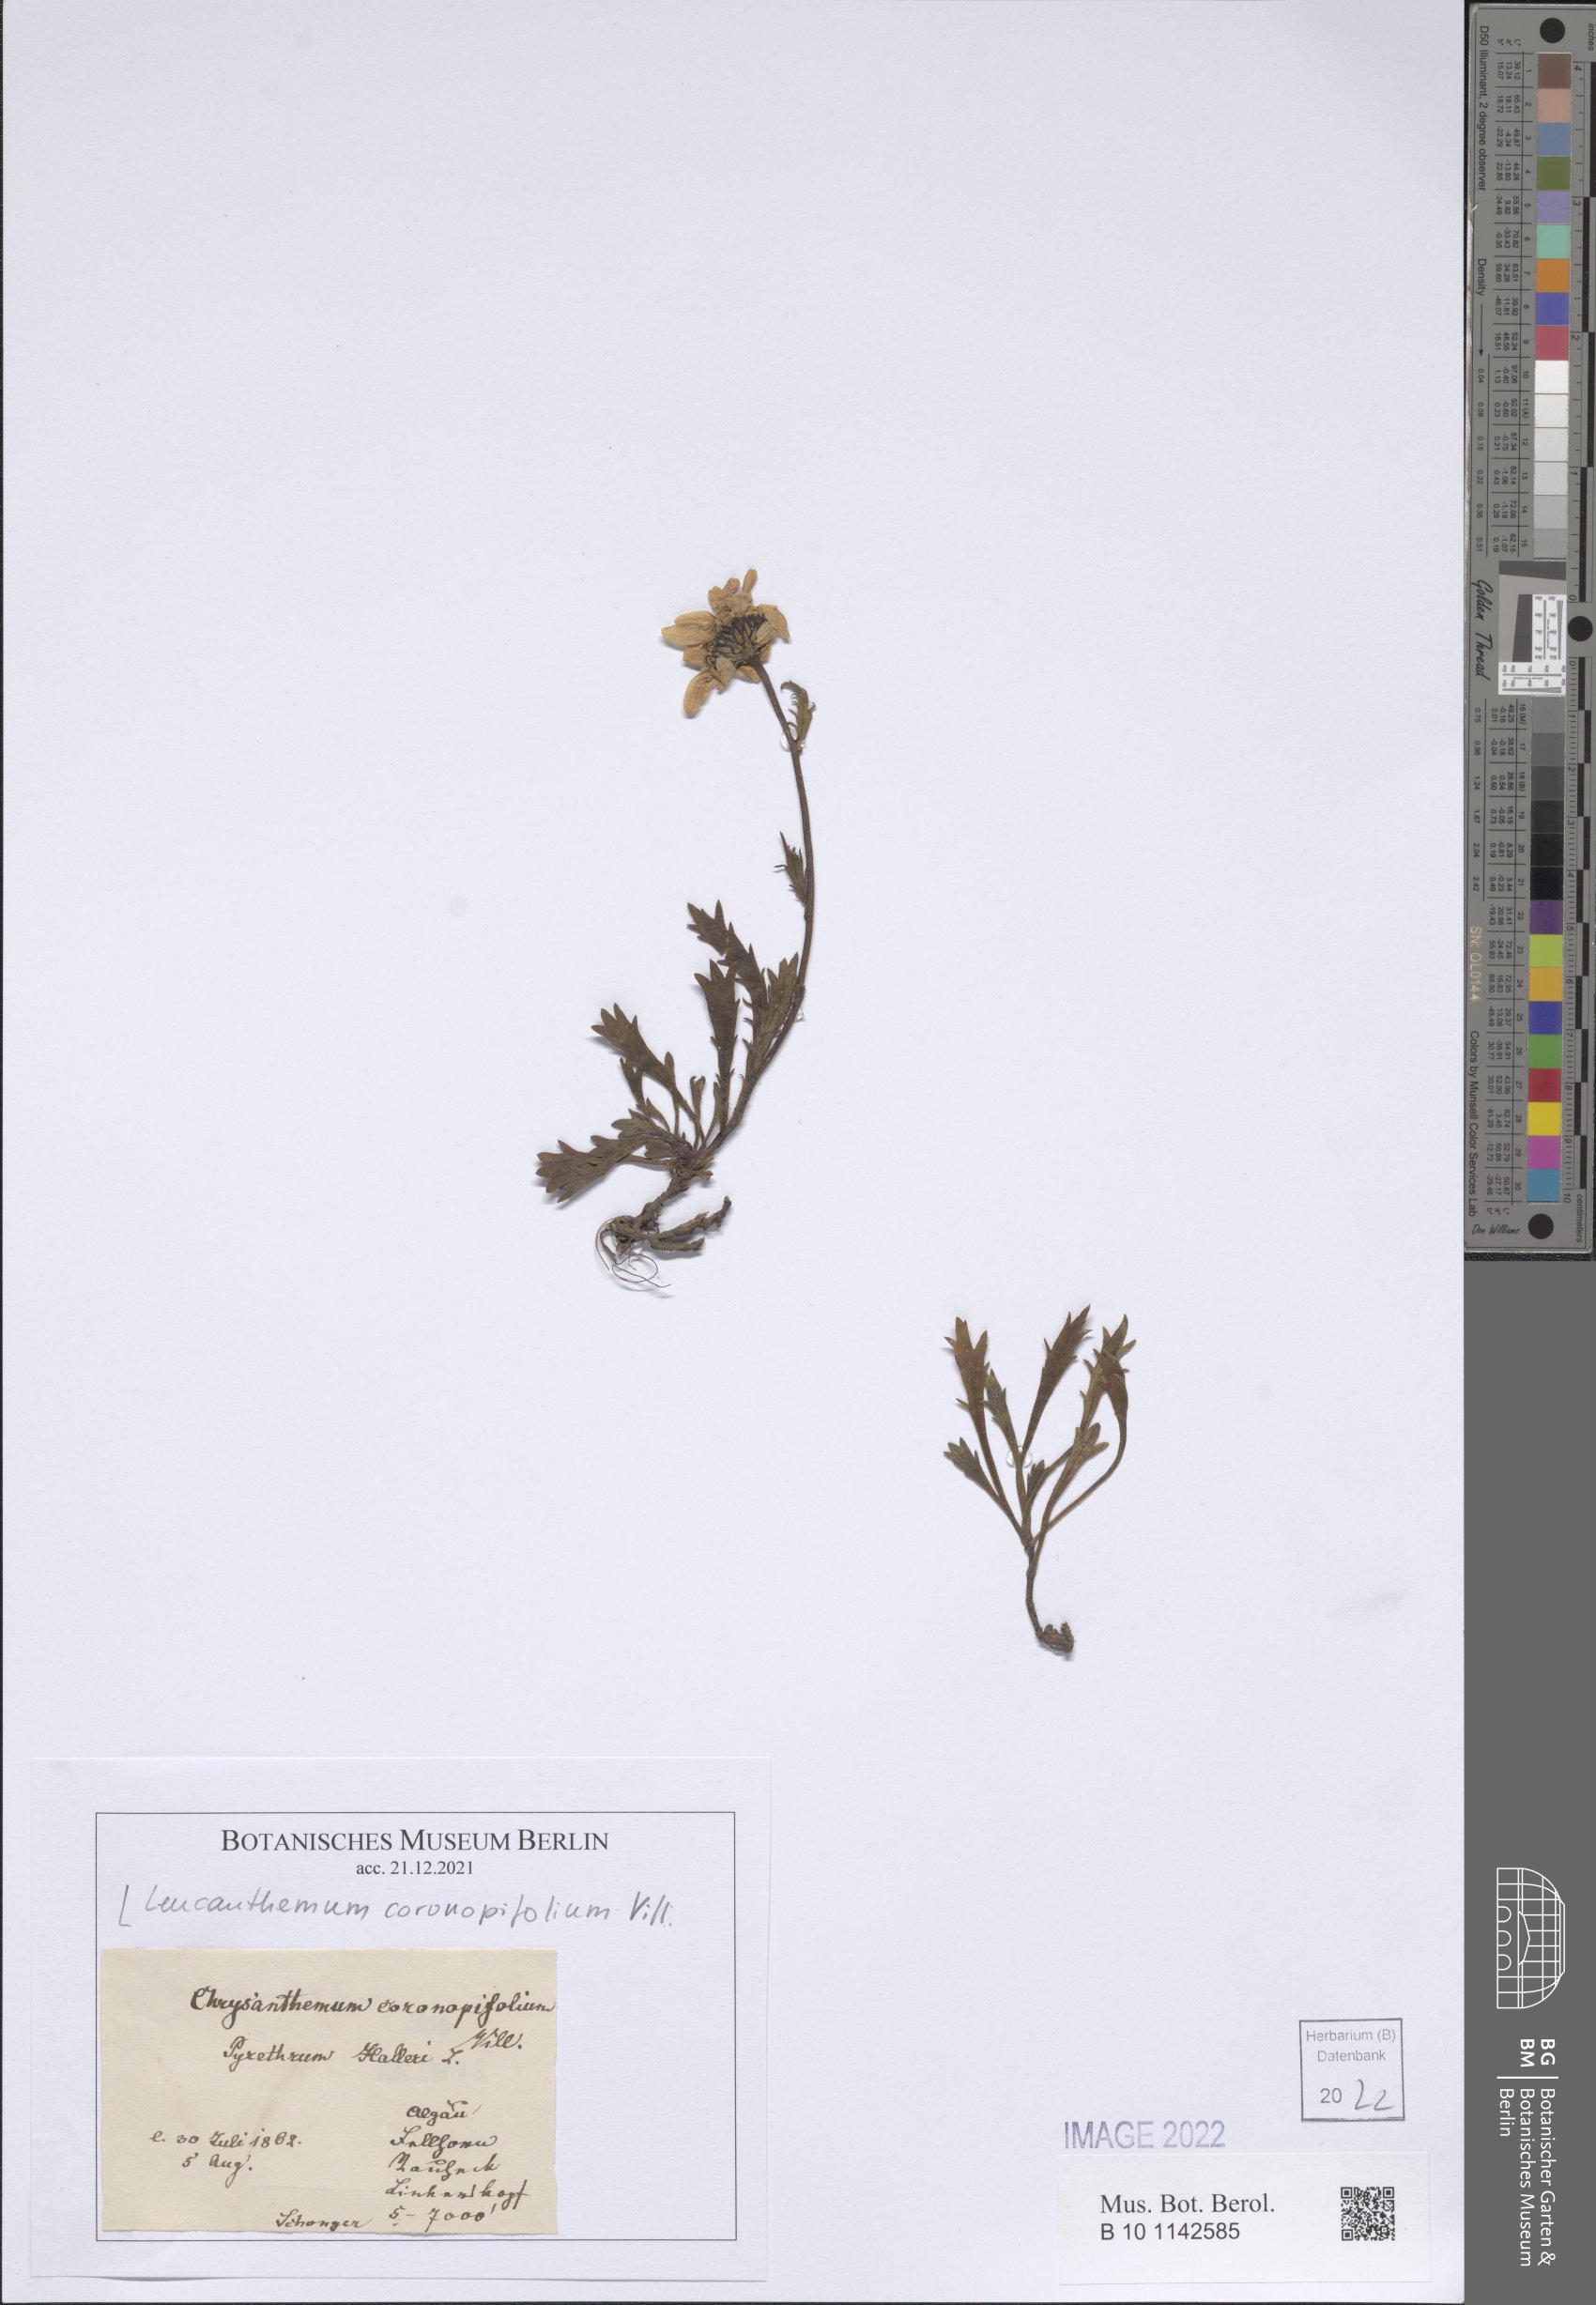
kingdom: Plantae
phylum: Tracheophyta
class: Magnoliopsida
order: Asterales
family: Asteraceae
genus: Leucanthemum
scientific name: Leucanthemum halleri
